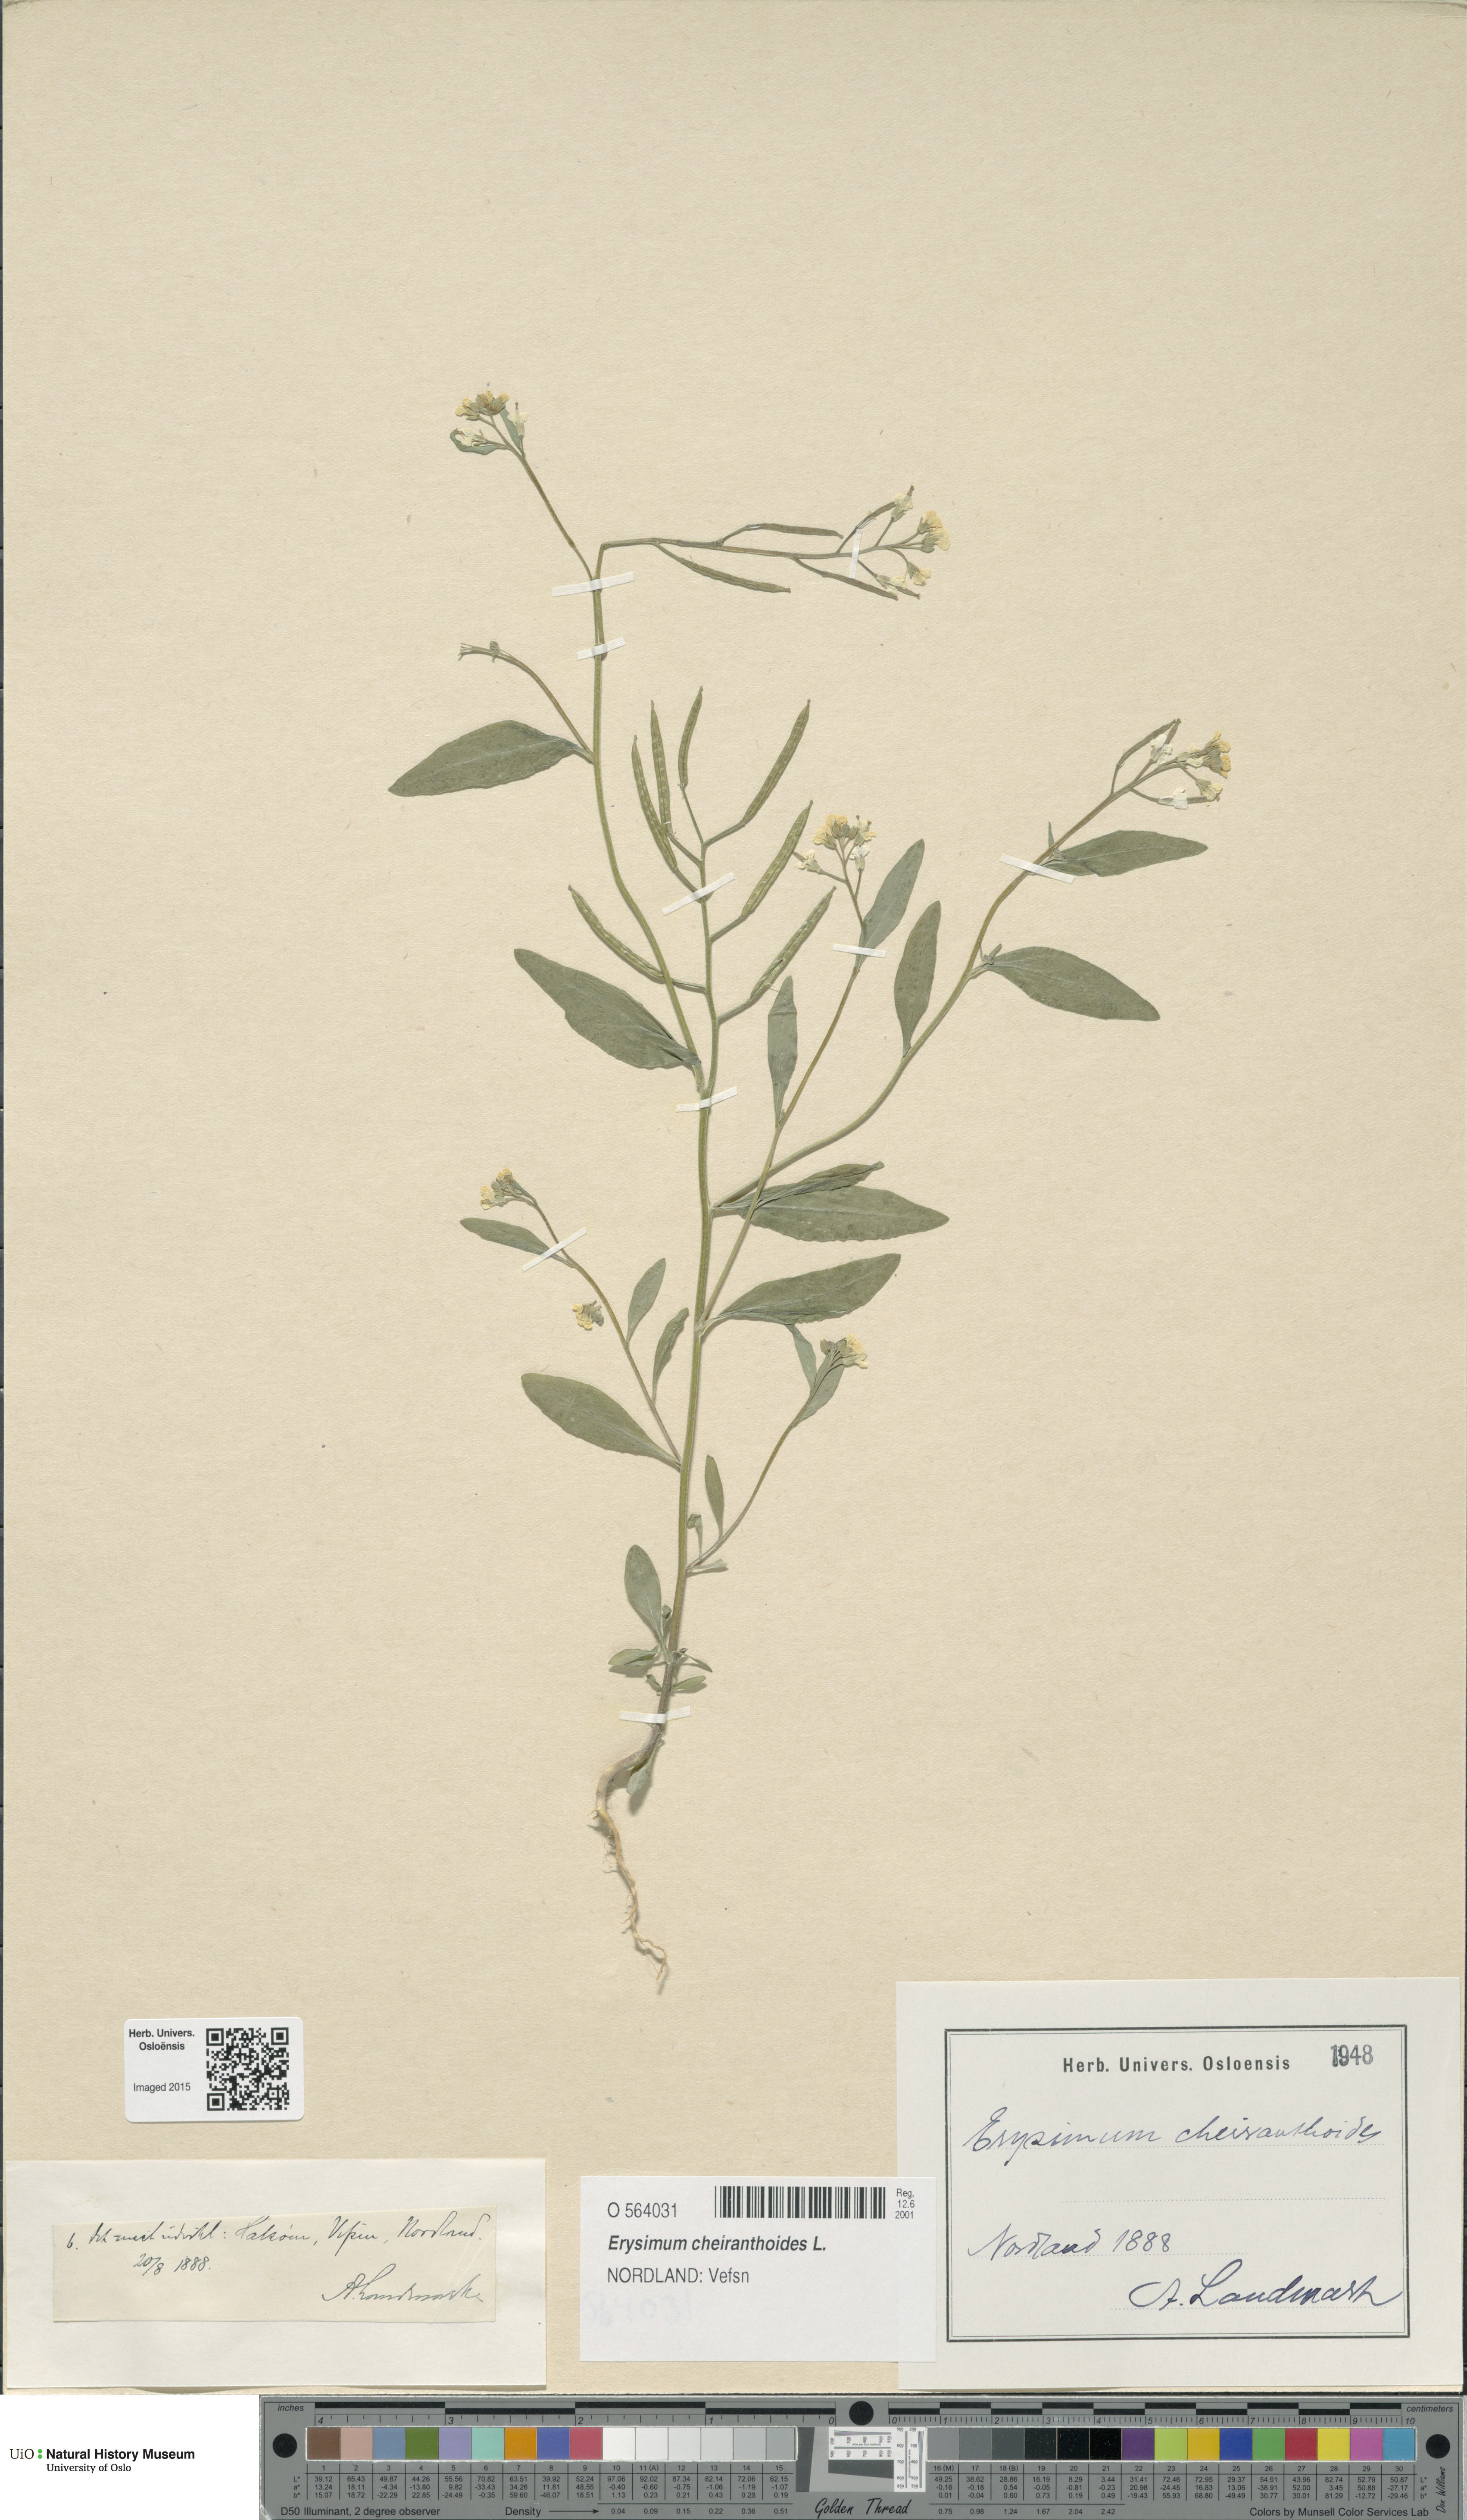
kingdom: Plantae
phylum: Tracheophyta
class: Magnoliopsida
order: Brassicales
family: Brassicaceae
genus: Erysimum
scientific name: Erysimum cheiranthoides
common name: Treacle mustard
